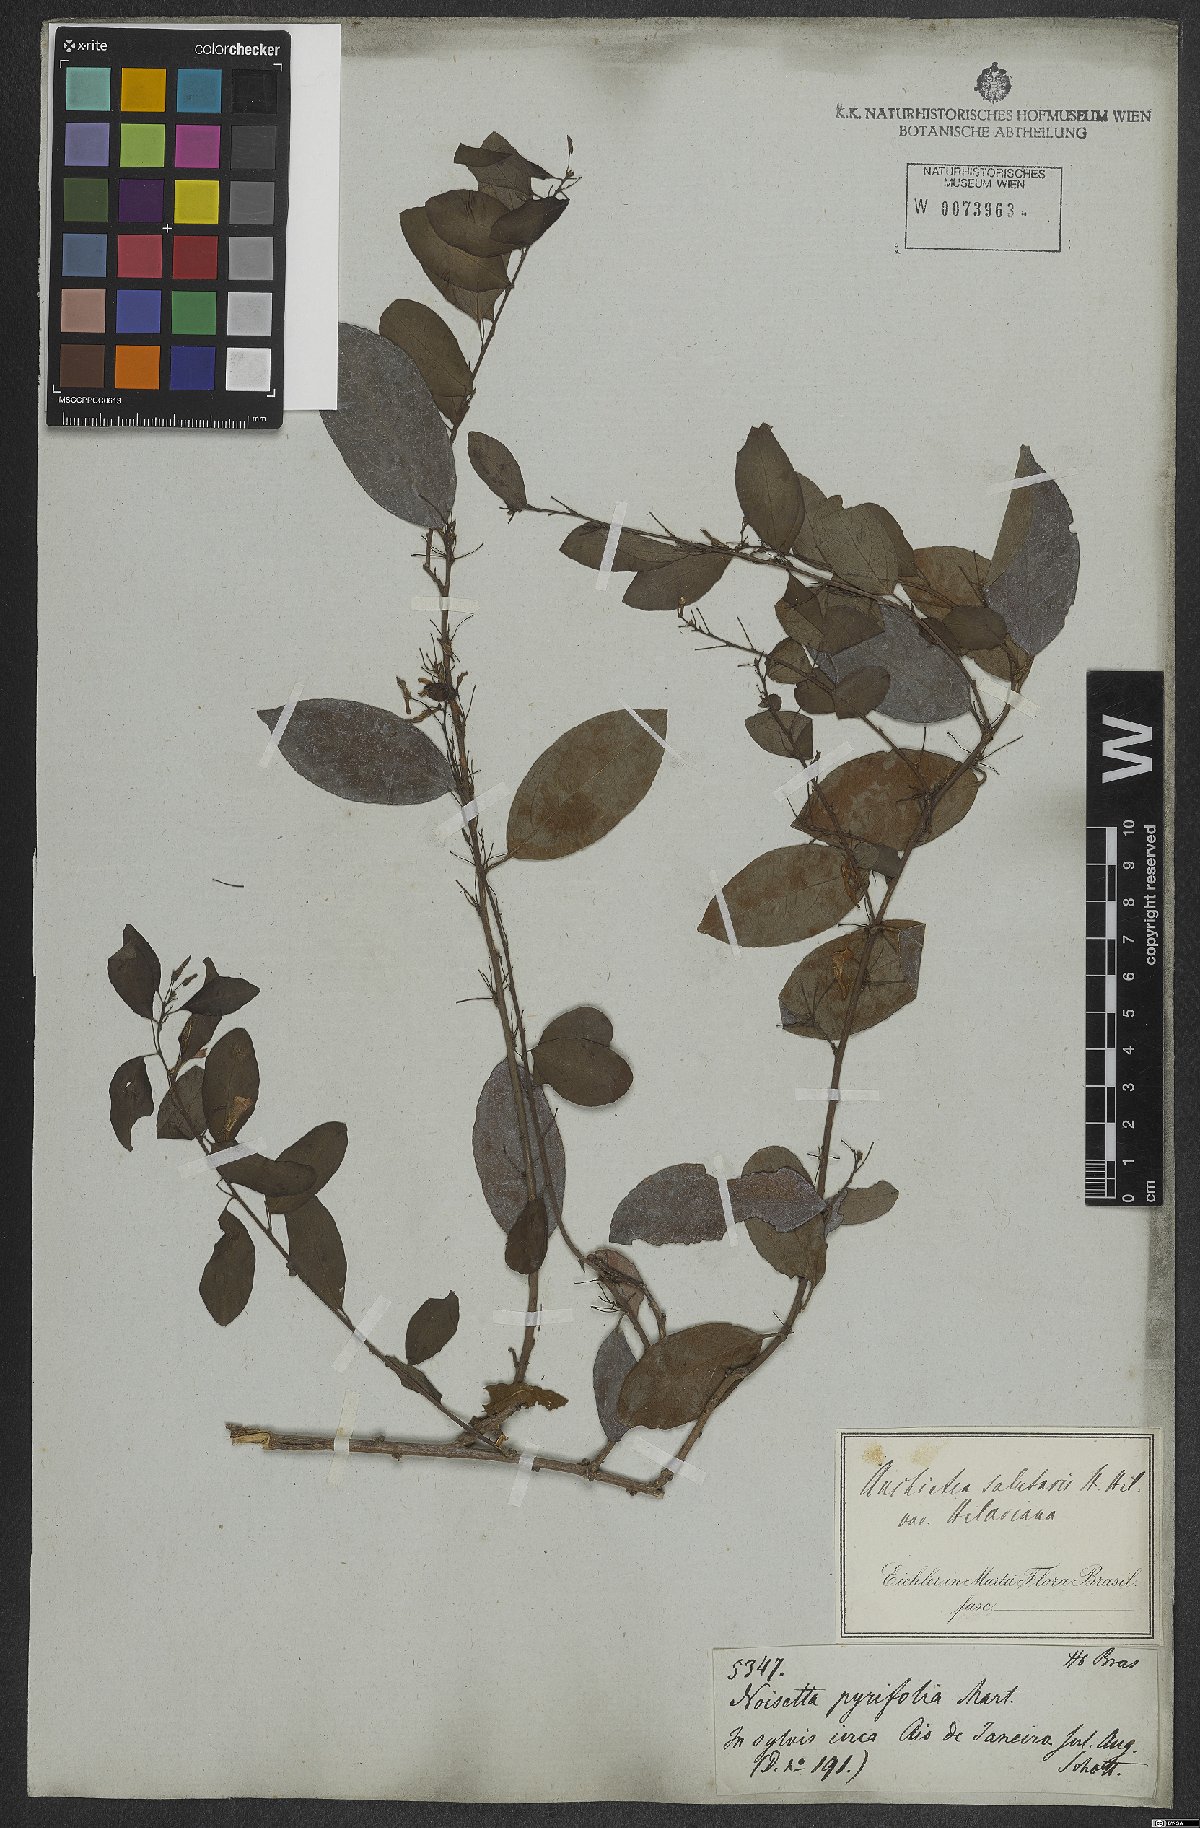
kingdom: Plantae
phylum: Tracheophyta
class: Magnoliopsida
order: Malpighiales
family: Violaceae
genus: Anchietea
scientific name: Anchietea pyrifolia
